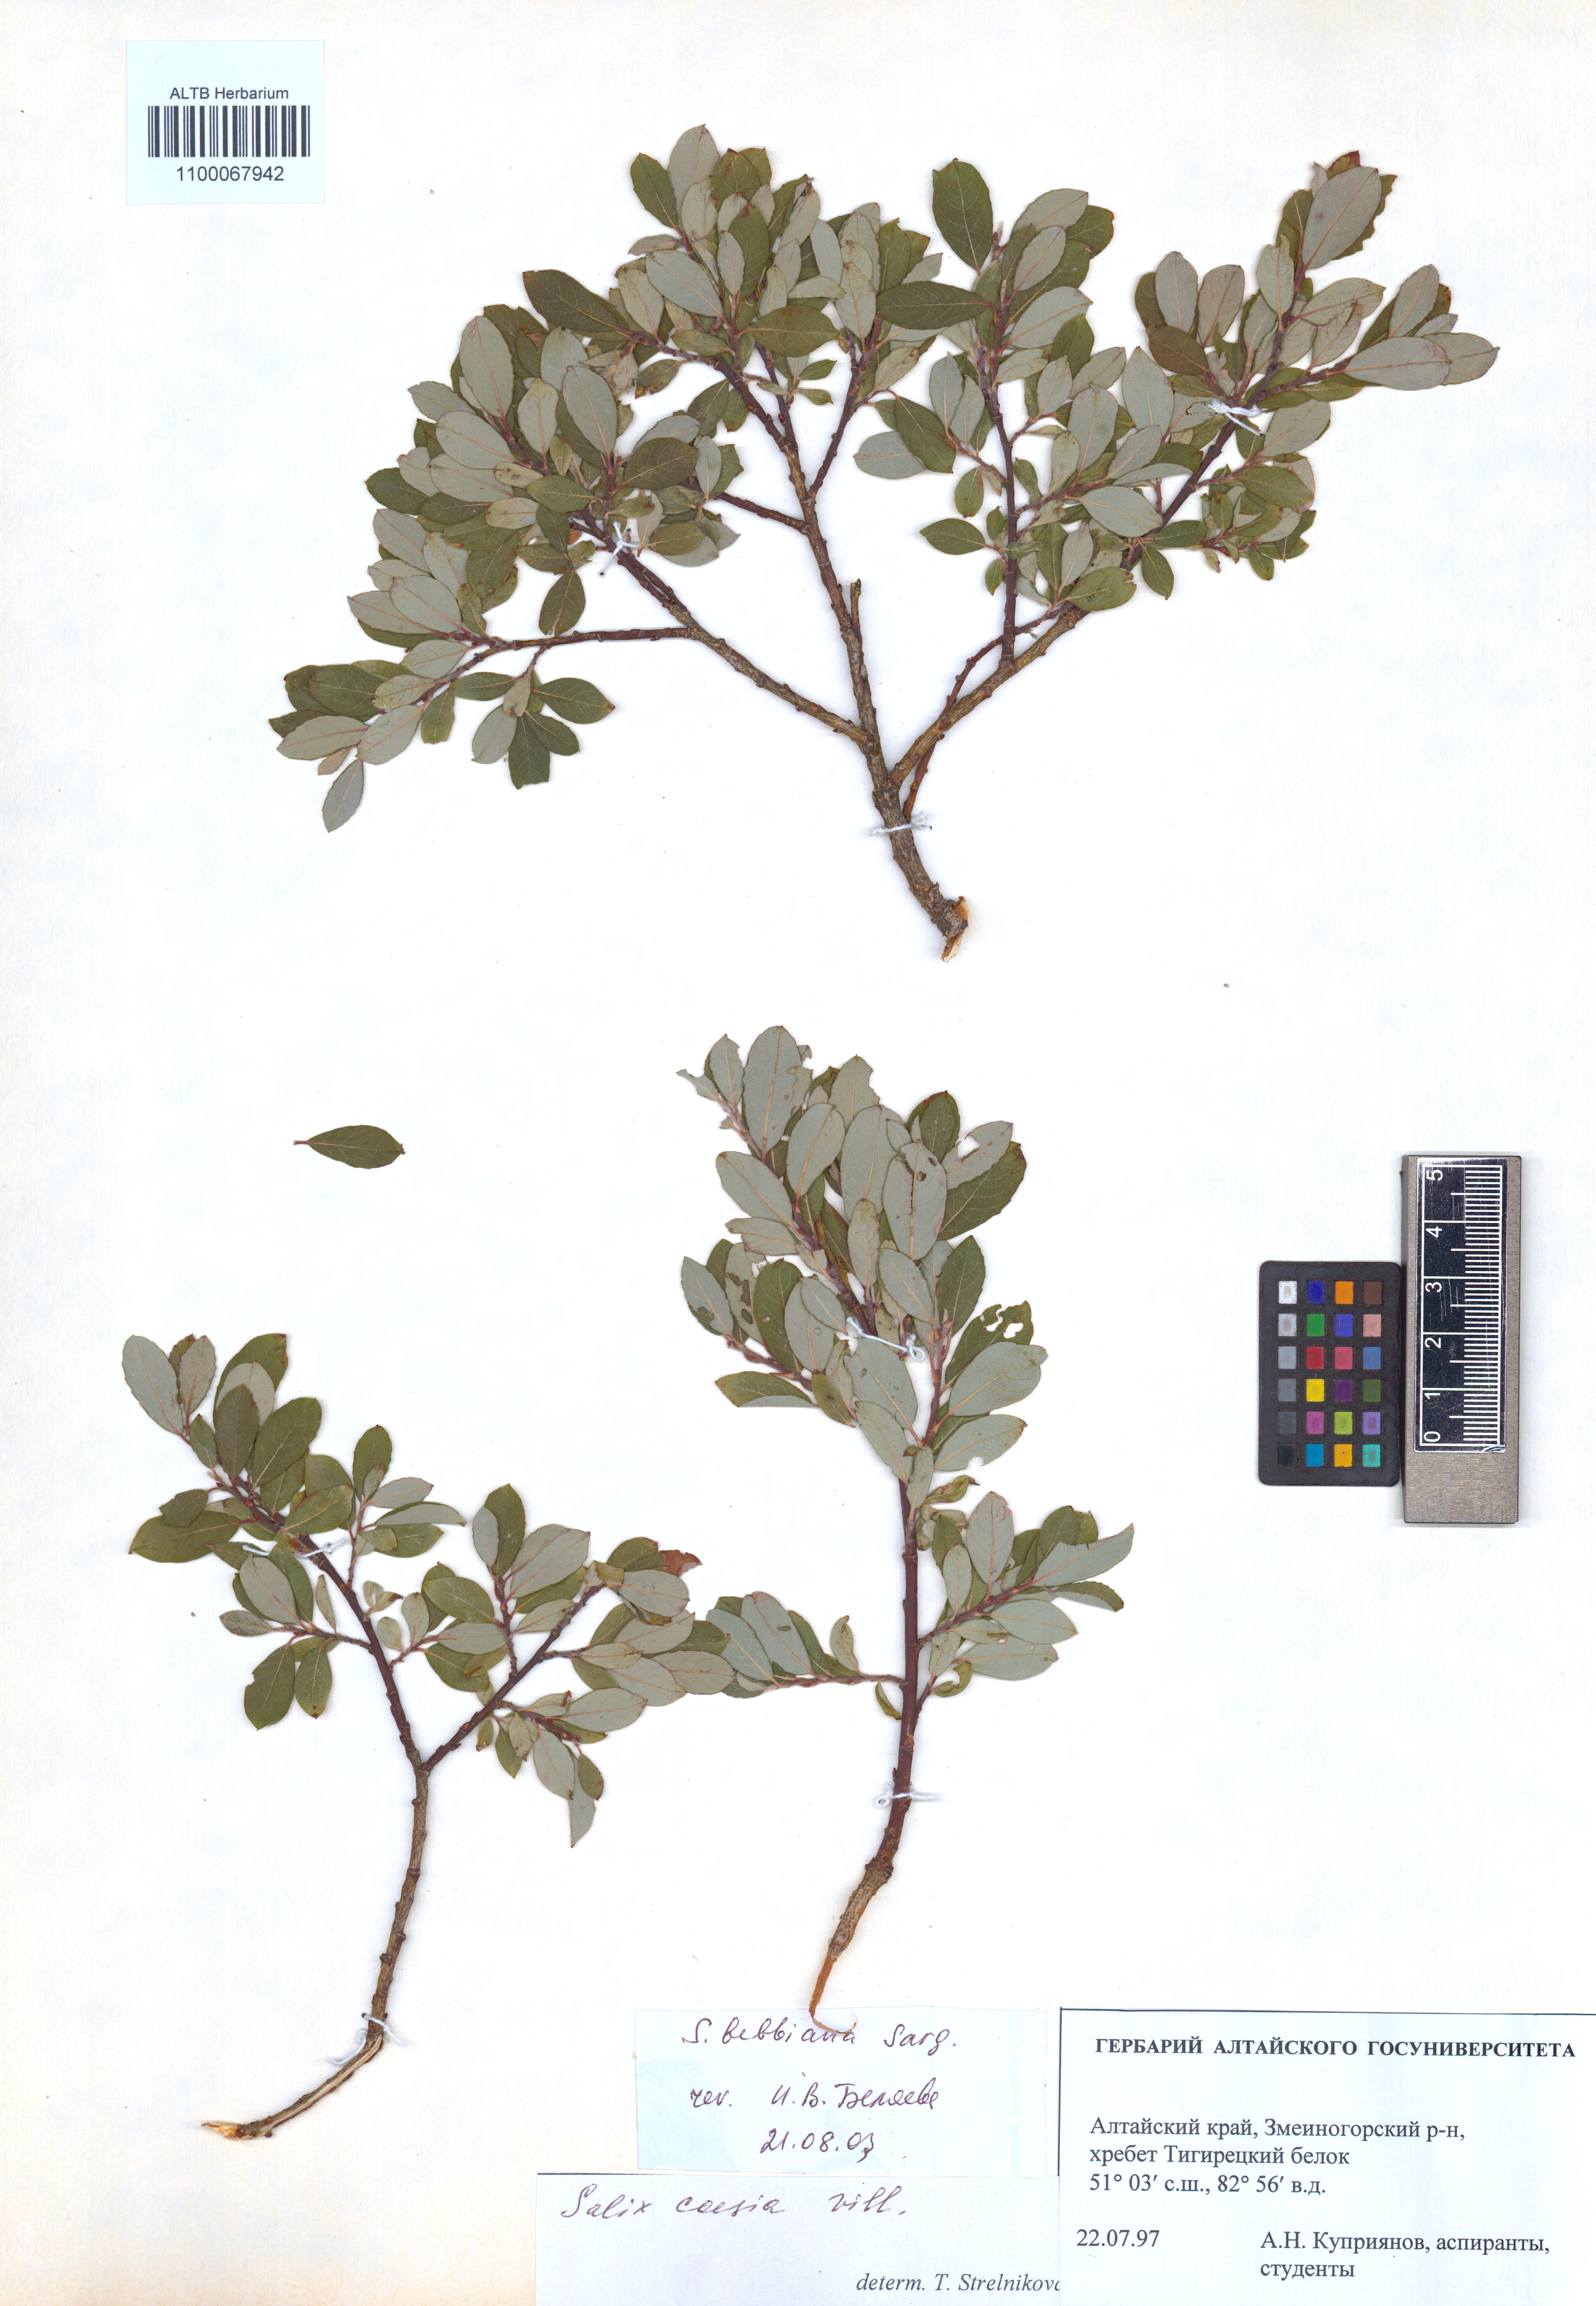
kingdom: Plantae
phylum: Tracheophyta
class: Magnoliopsida
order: Malpighiales
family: Salicaceae
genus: Salix
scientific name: Salix bebbiana
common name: Bebb's willow
